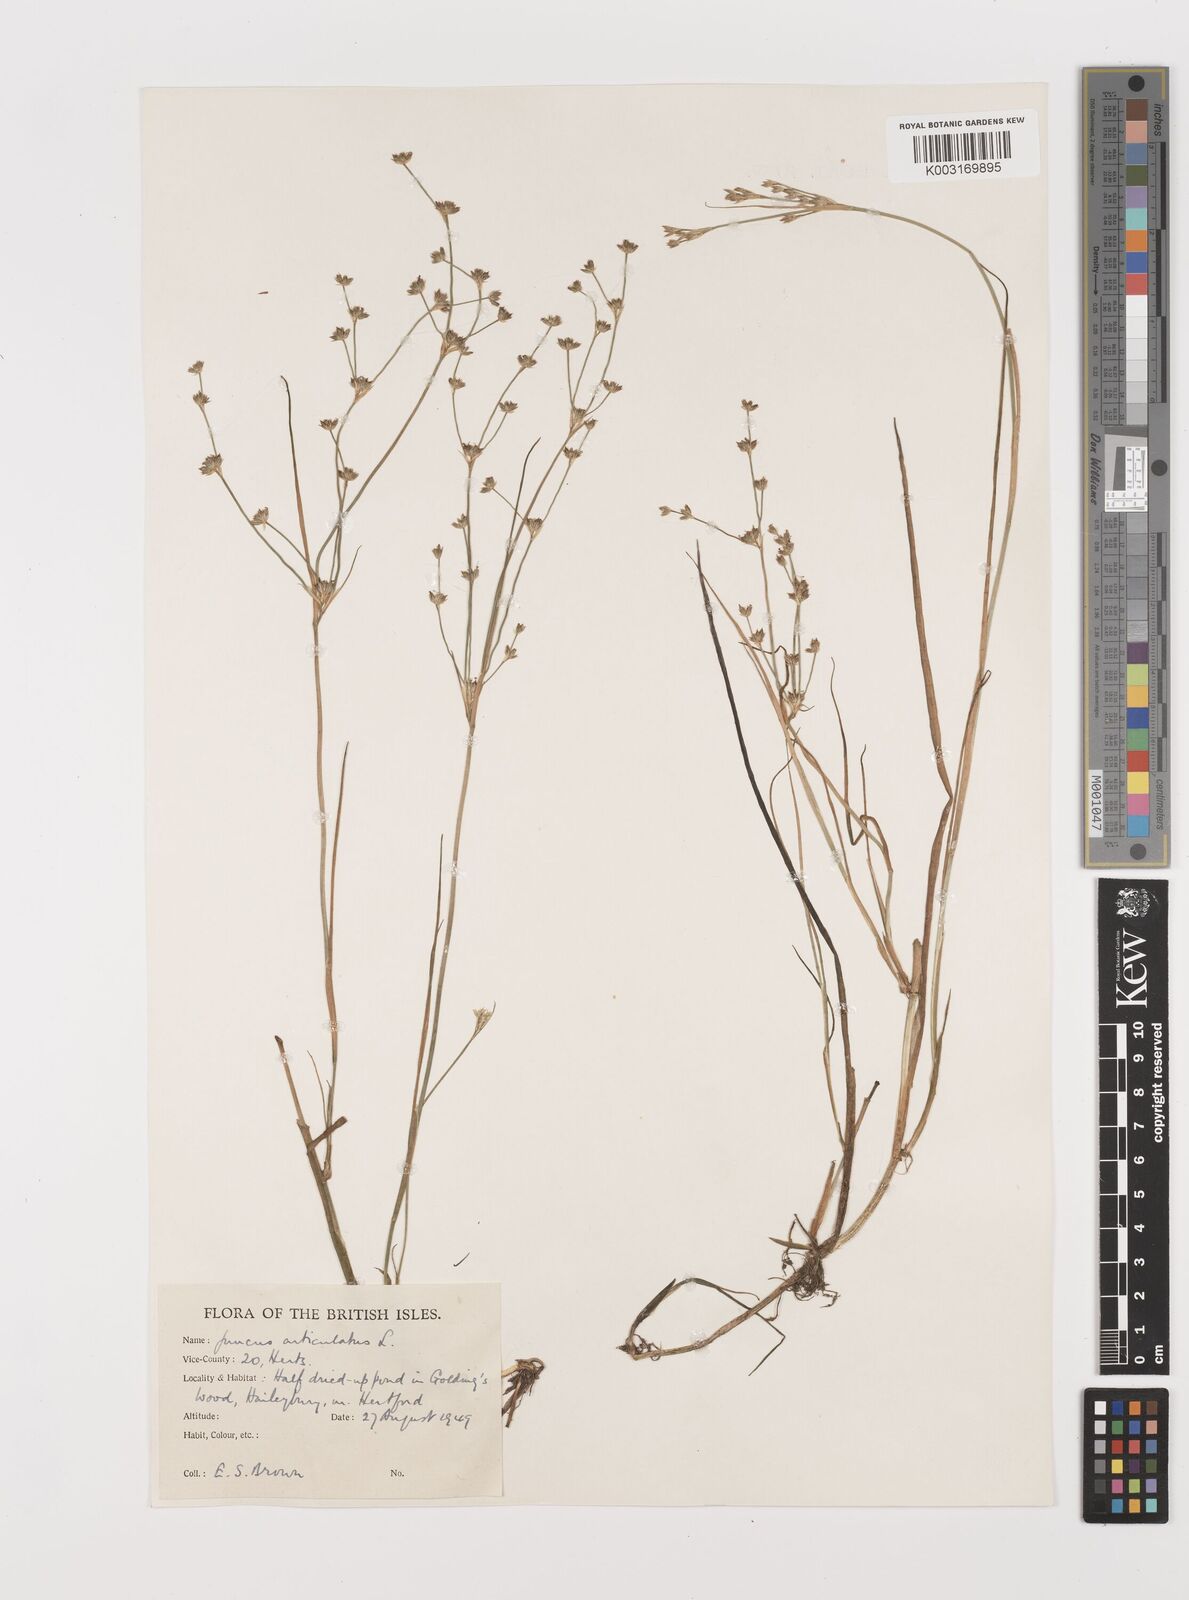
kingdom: Plantae
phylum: Tracheophyta
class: Liliopsida
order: Poales
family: Juncaceae
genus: Juncus
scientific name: Juncus articulatus
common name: Jointed rush
